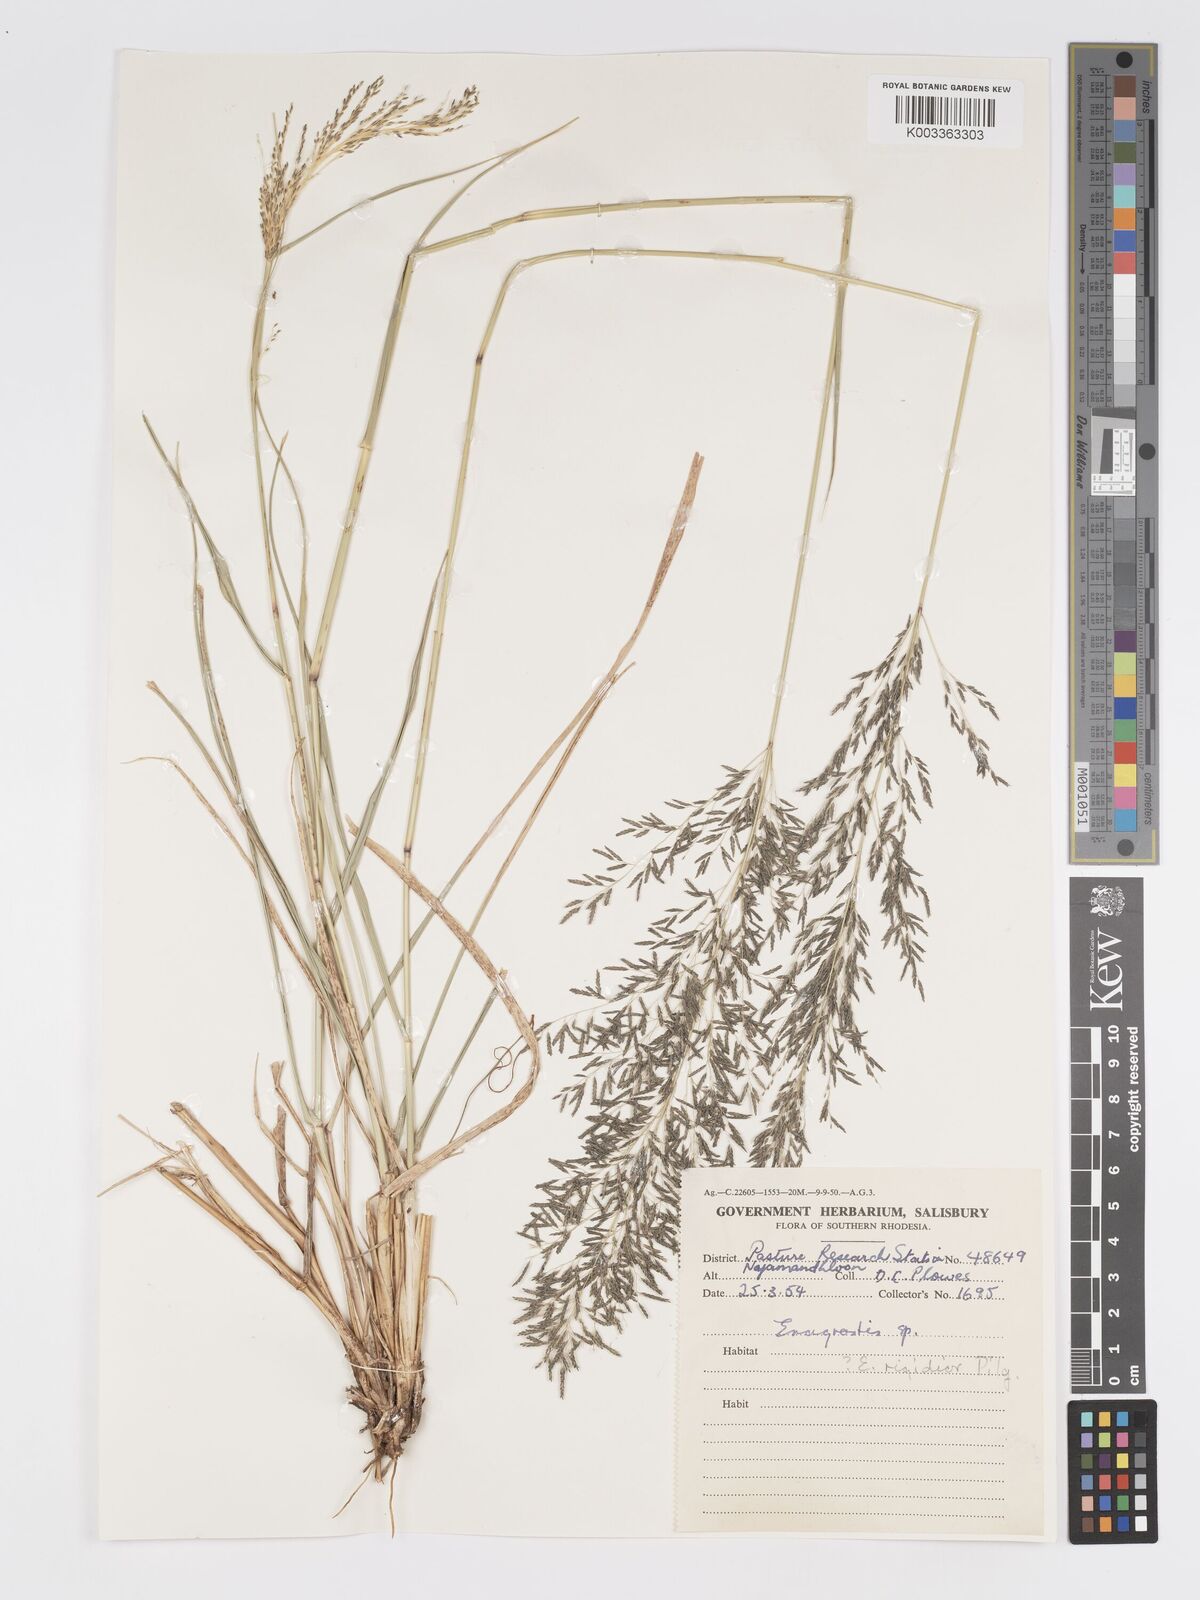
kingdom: Plantae
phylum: Tracheophyta
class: Liliopsida
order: Poales
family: Poaceae
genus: Eragrostis
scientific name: Eragrostis curvula
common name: African love-grass
